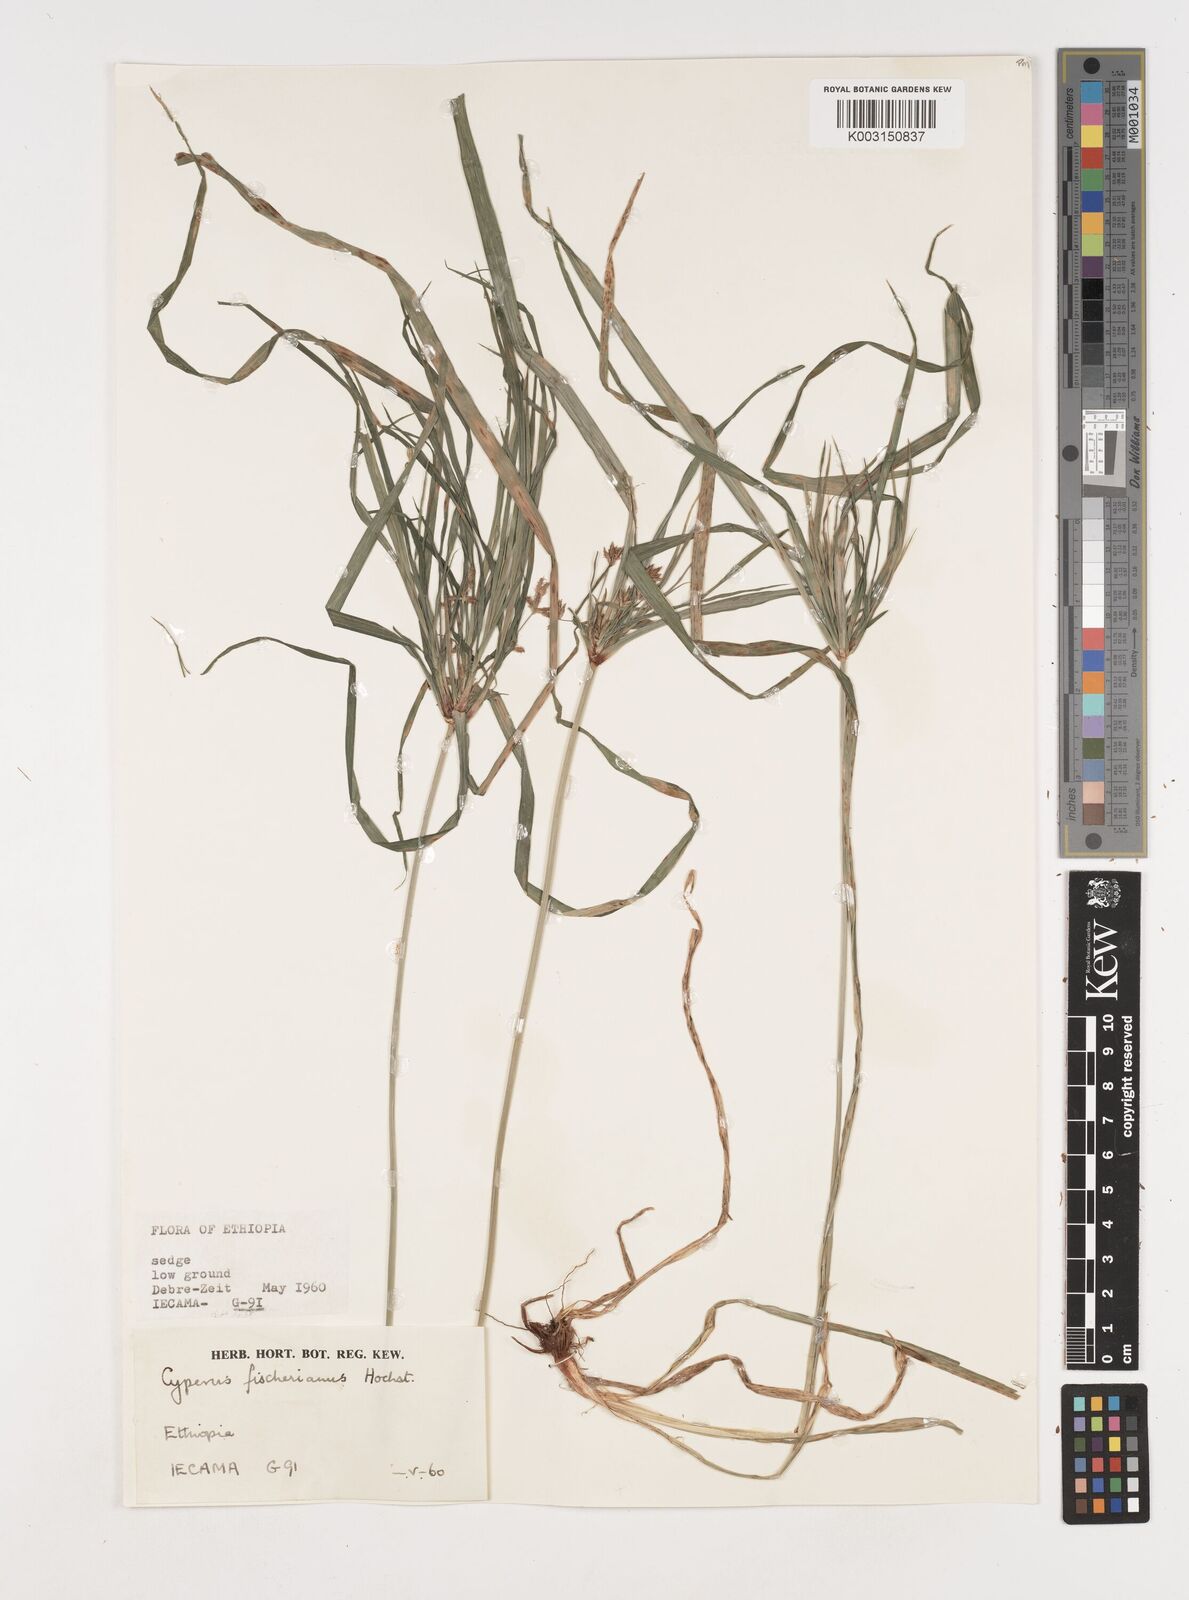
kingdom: Plantae
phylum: Tracheophyta
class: Liliopsida
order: Poales
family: Cyperaceae
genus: Cyperus
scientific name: Cyperus fischerianus
